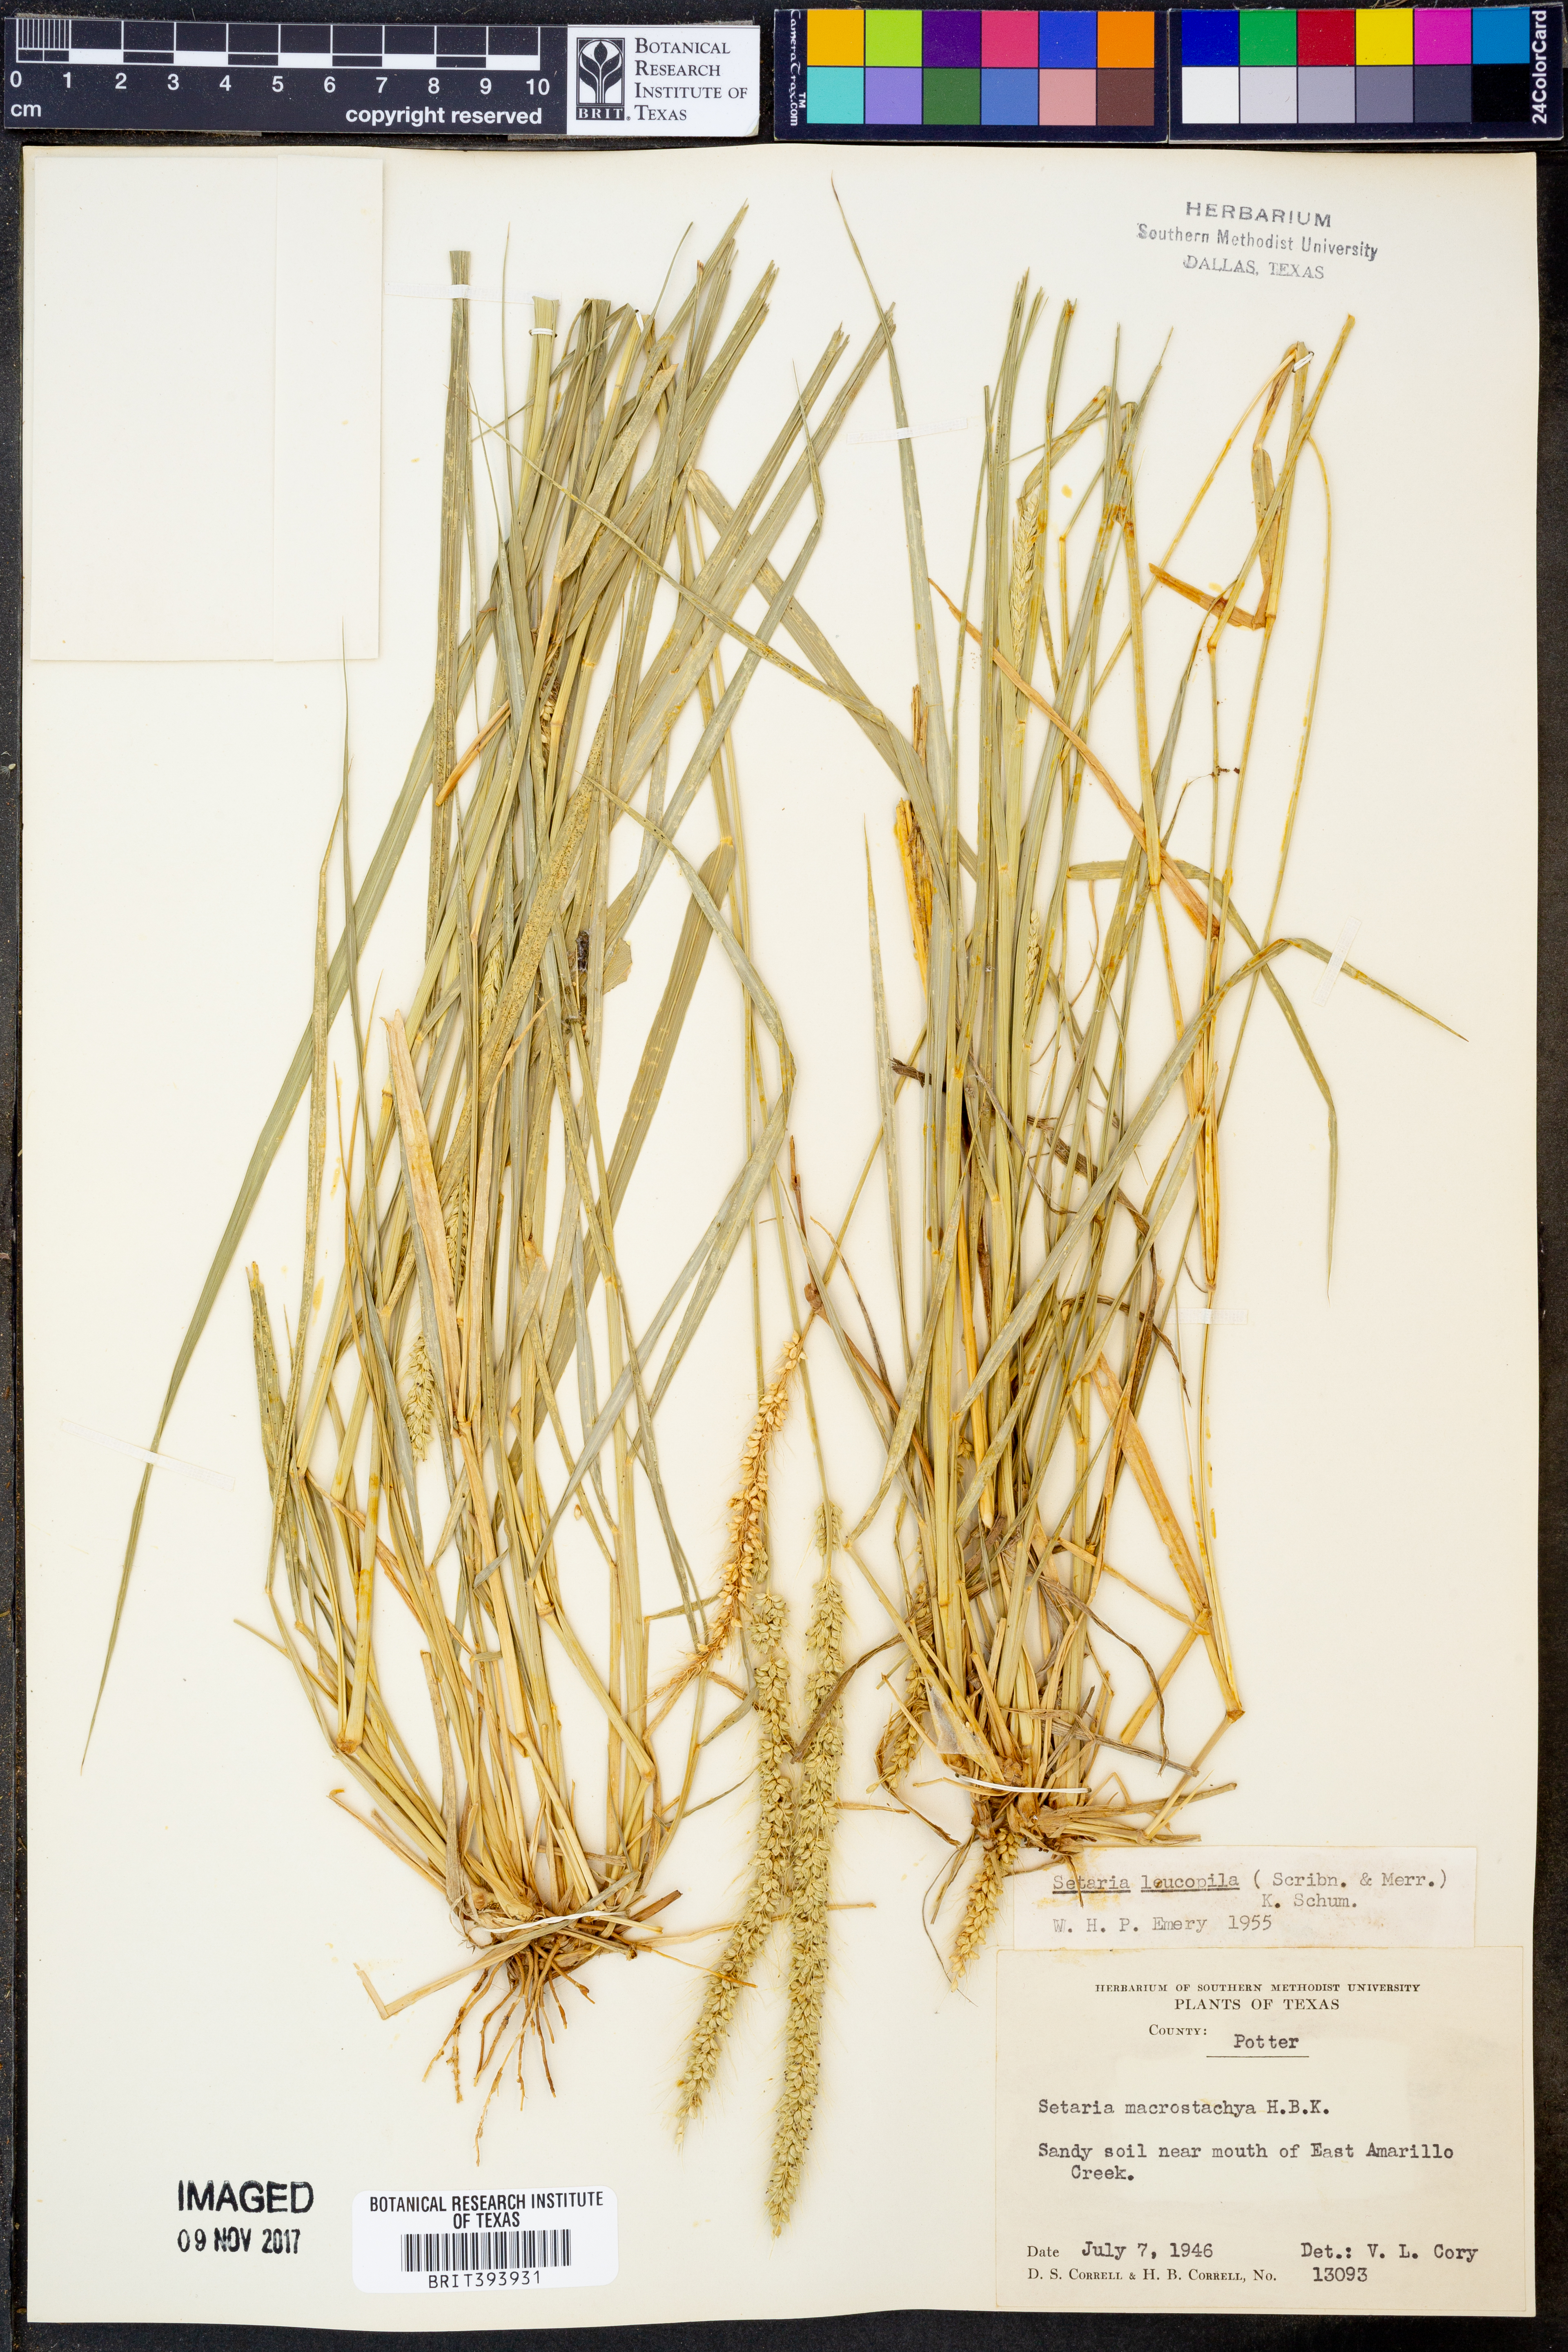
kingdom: Plantae
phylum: Tracheophyta
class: Liliopsida
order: Poales
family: Poaceae
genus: Setaria
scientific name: Setaria leucopila
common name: Plains bristle grass
